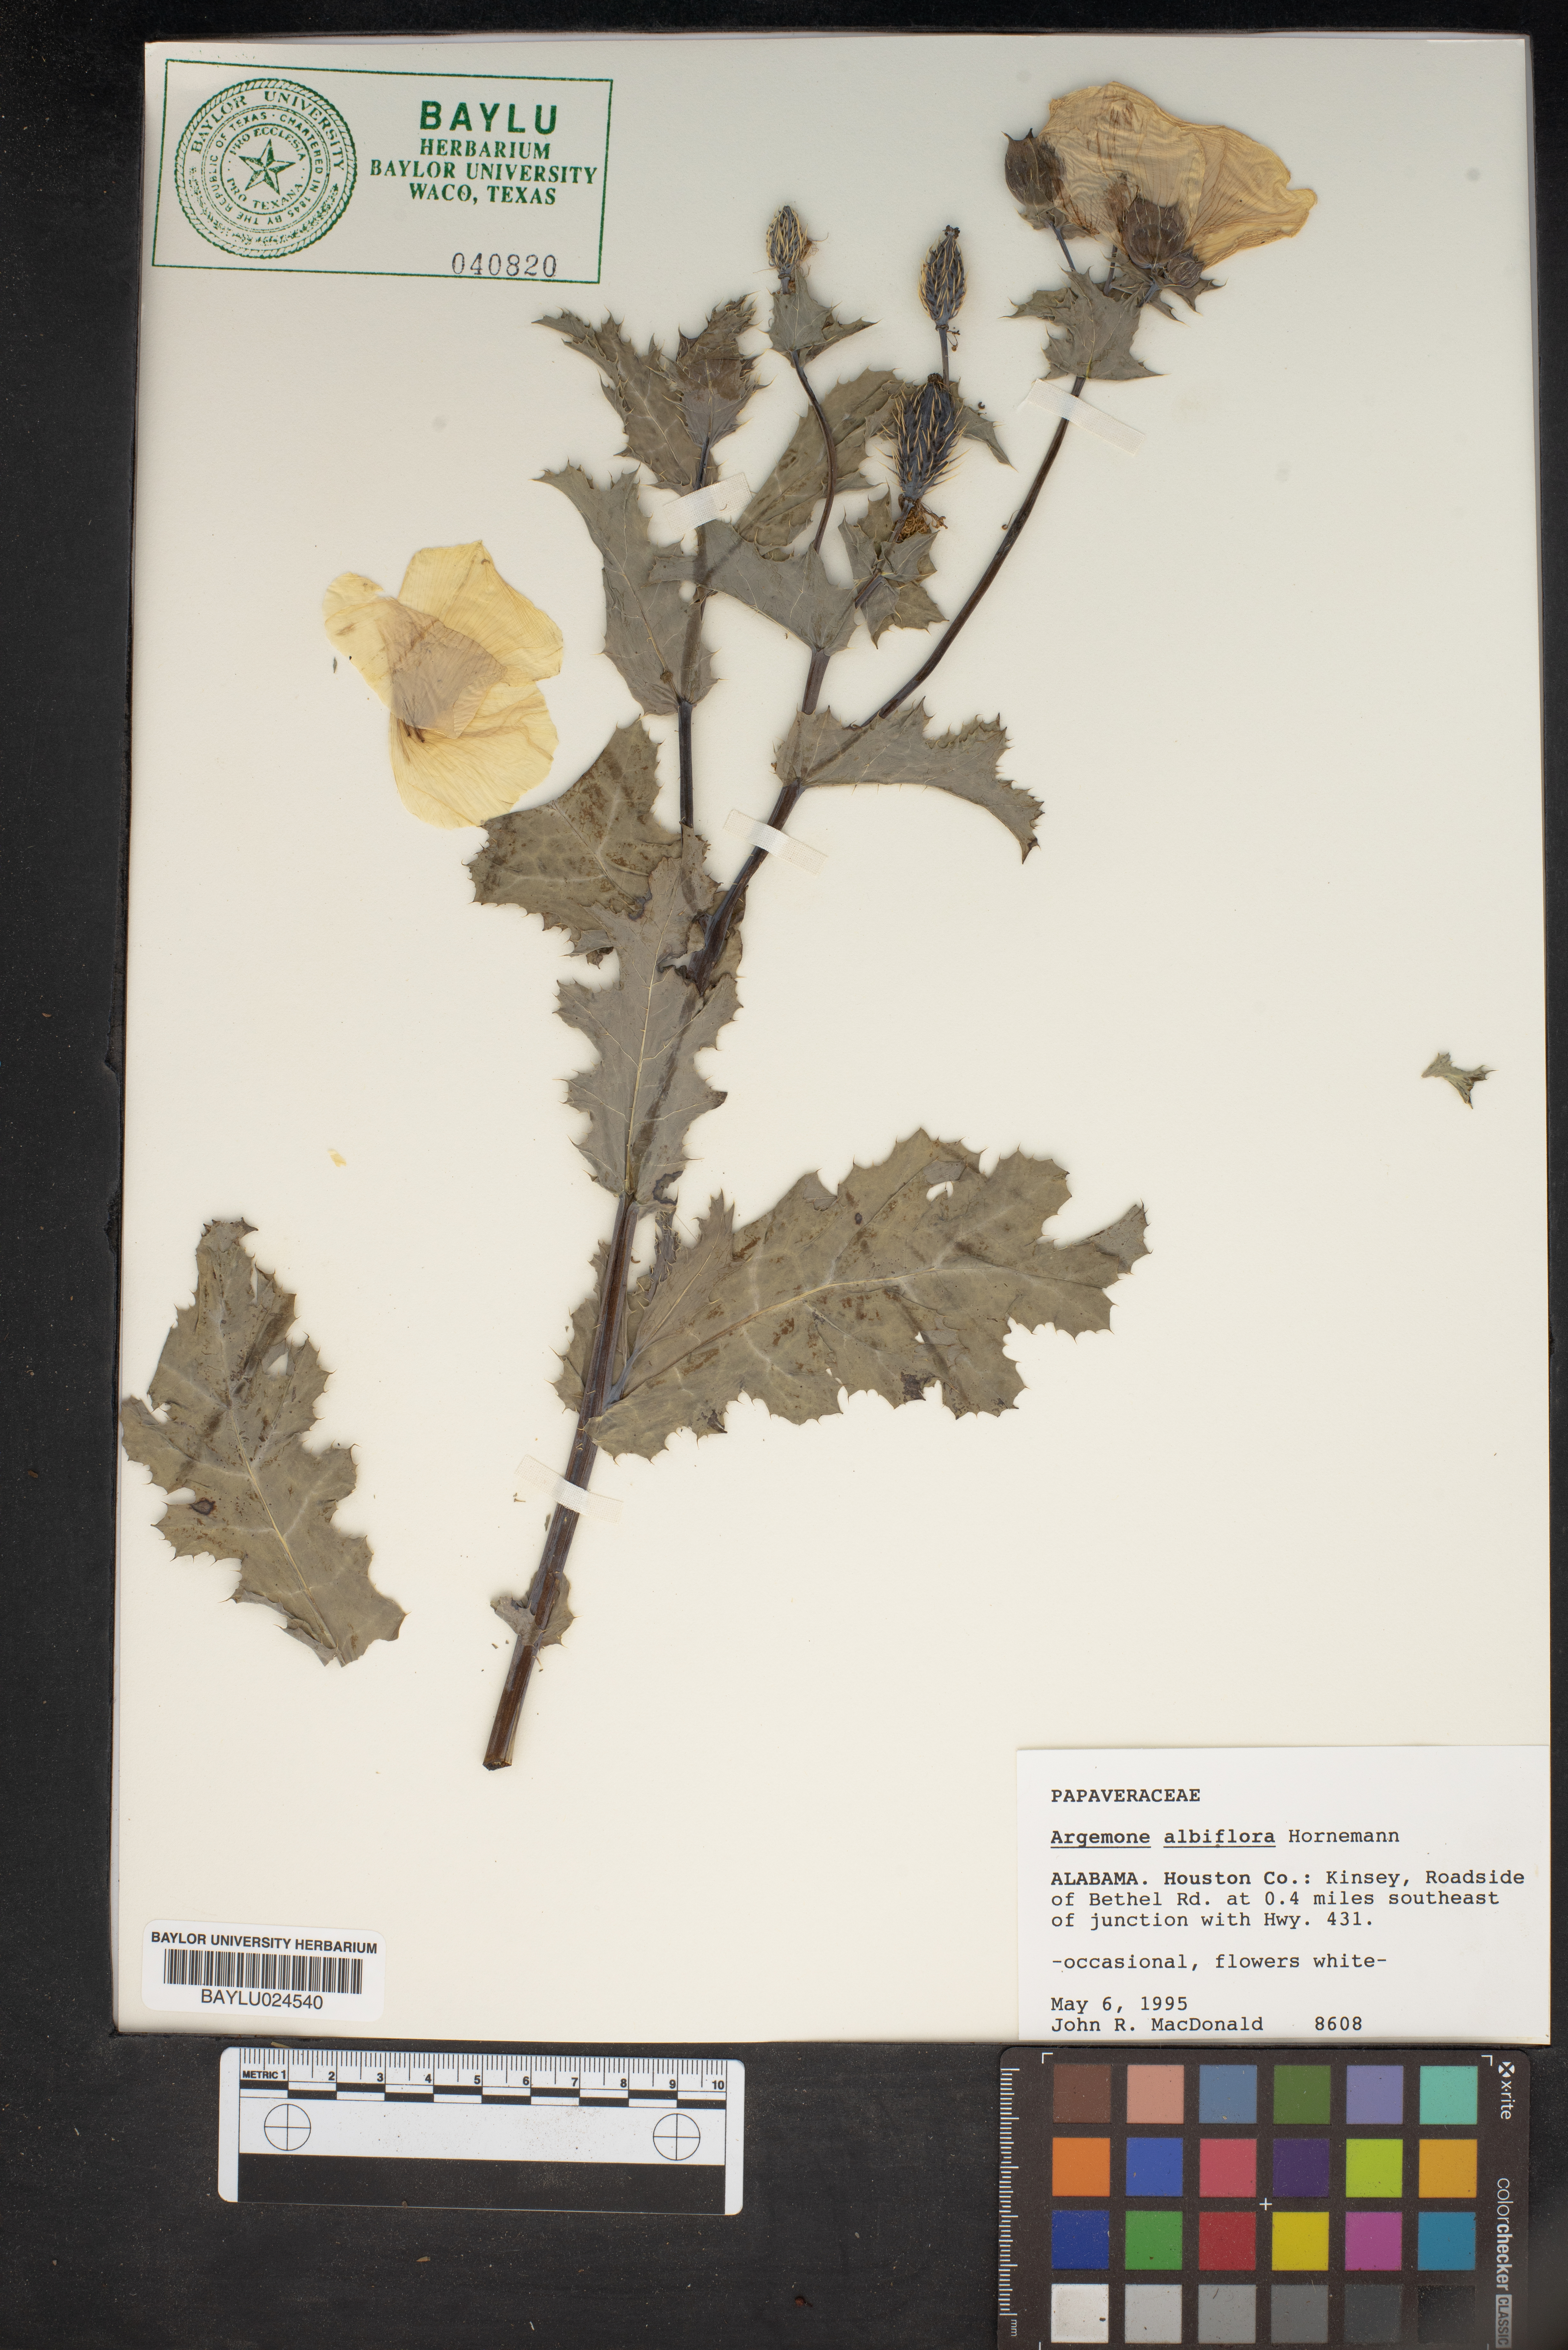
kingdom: Plantae
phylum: Tracheophyta
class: Magnoliopsida
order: Ranunculales
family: Papaveraceae
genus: Argemone
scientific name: Argemone albiflora
